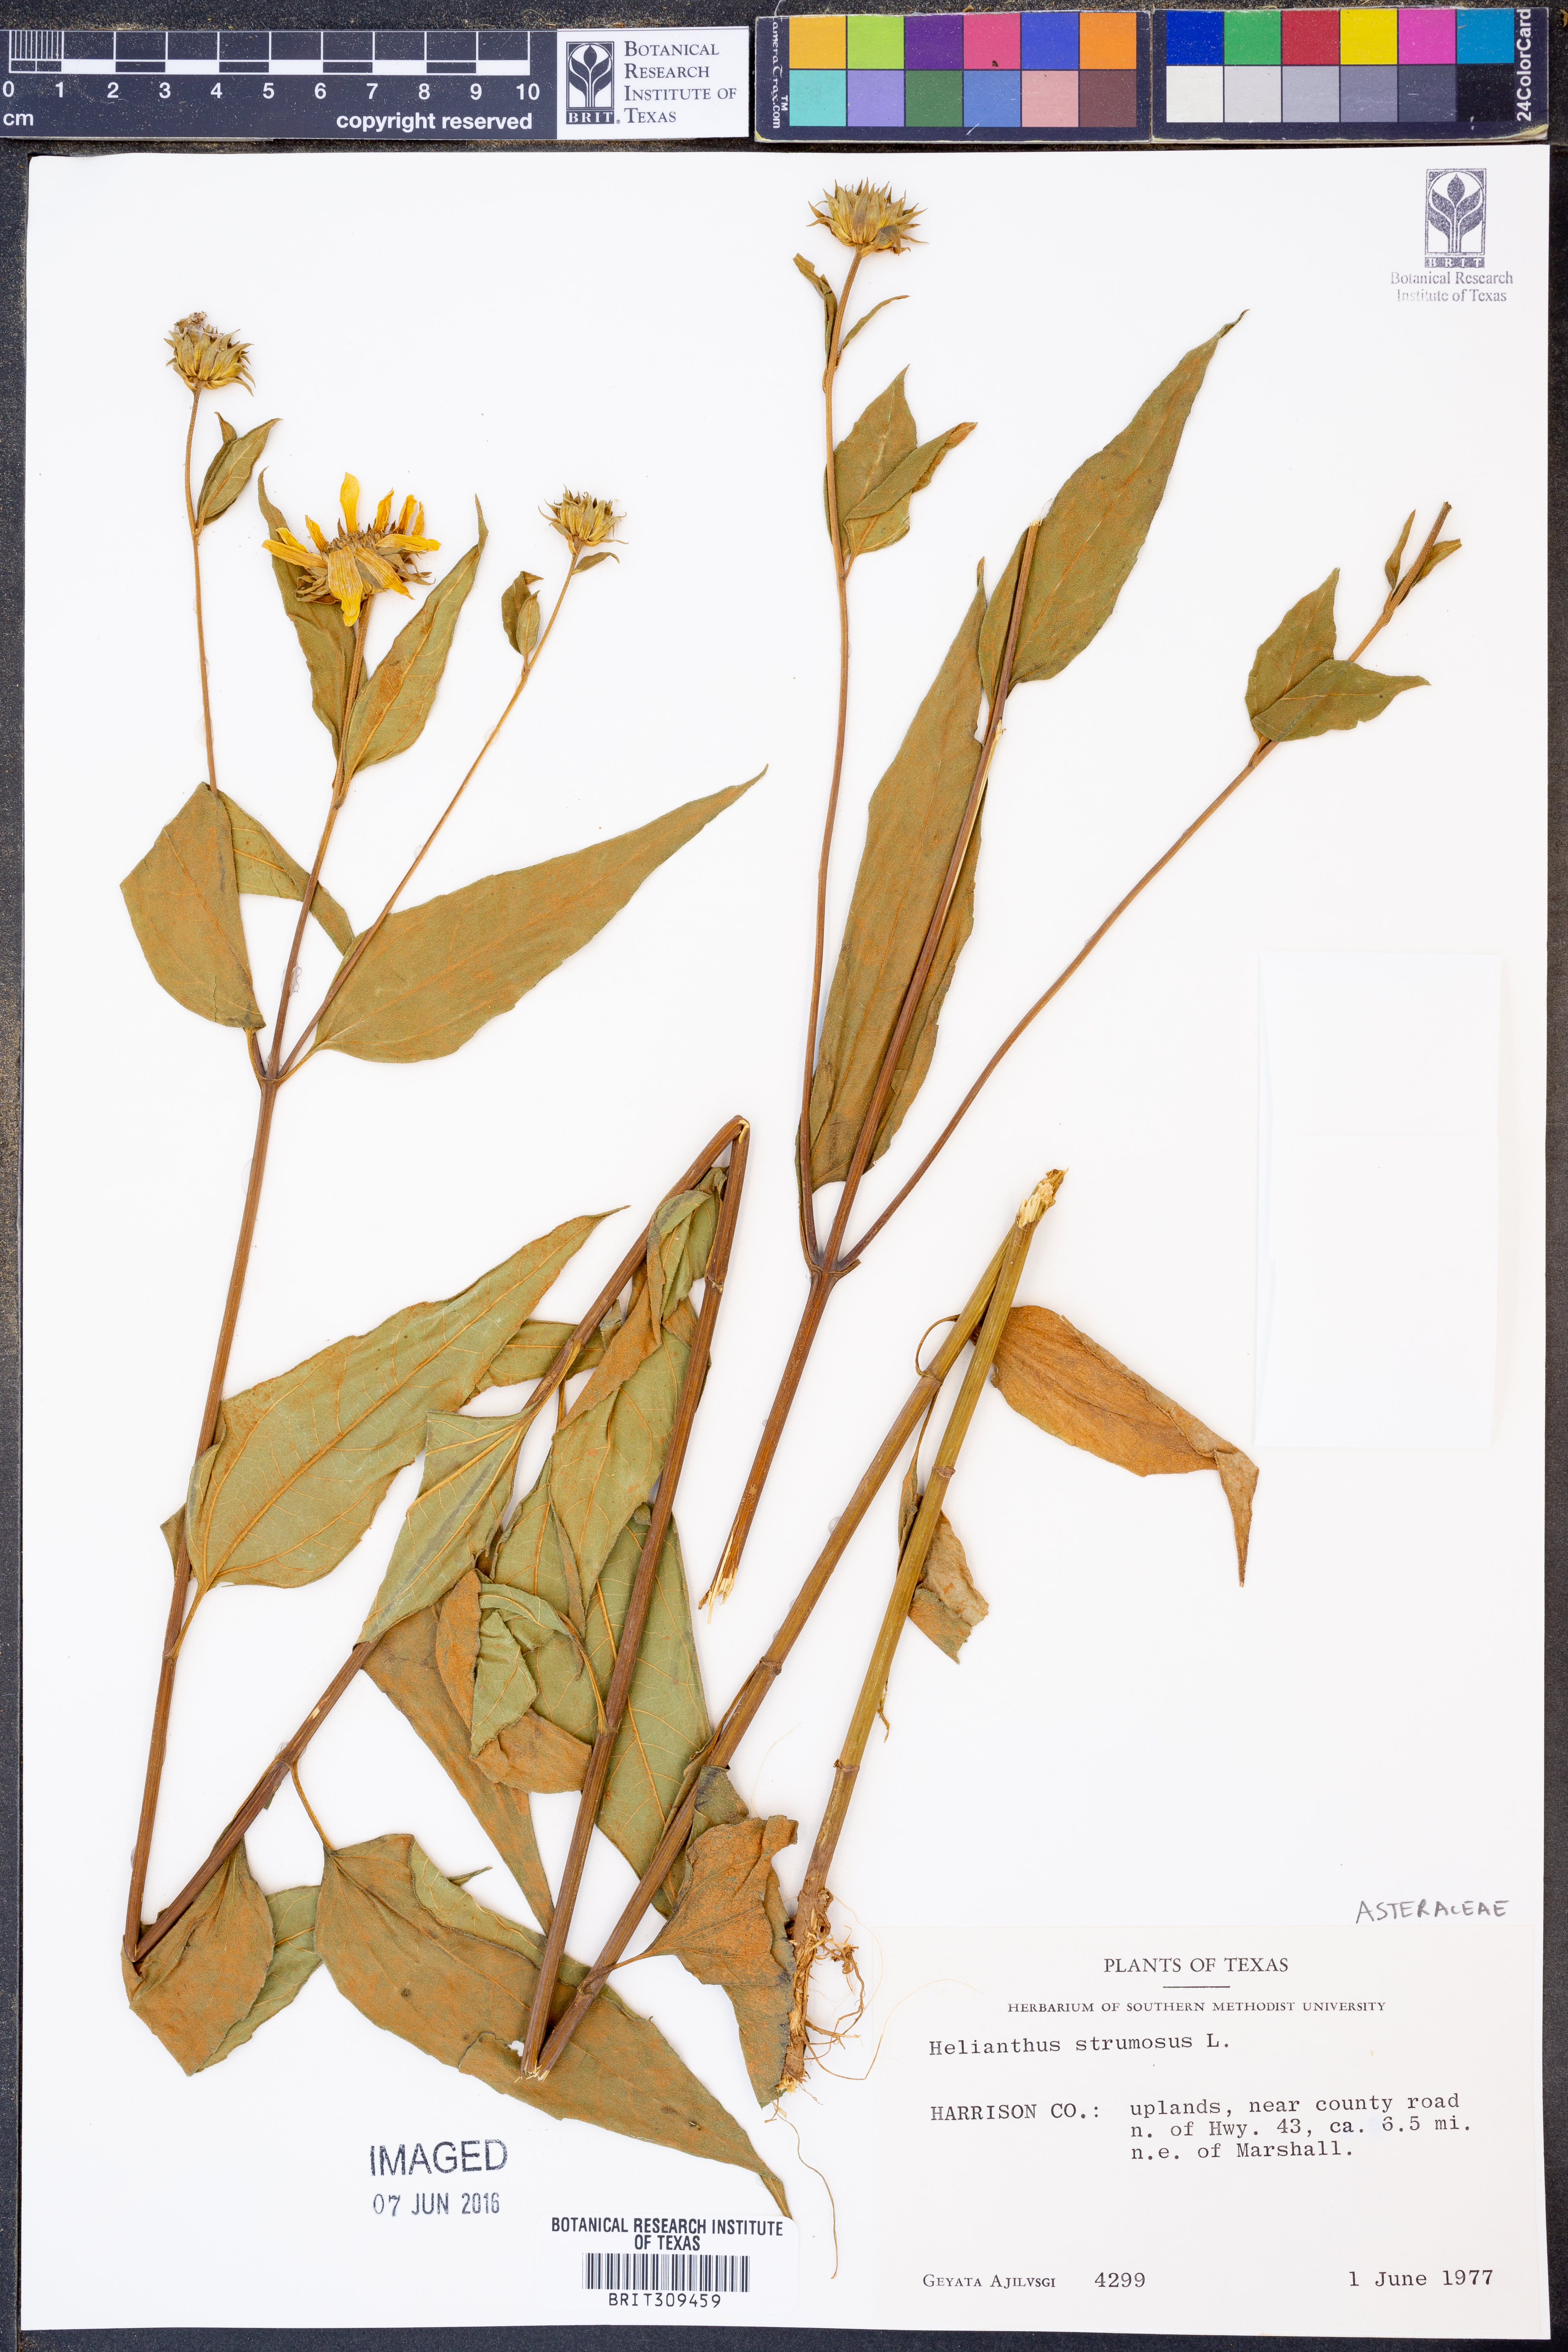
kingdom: Plantae
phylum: Tracheophyta
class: Magnoliopsida
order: Asterales
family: Asteraceae
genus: Helianthus
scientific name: Helianthus strumosus
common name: Pale-leaved sunflower
